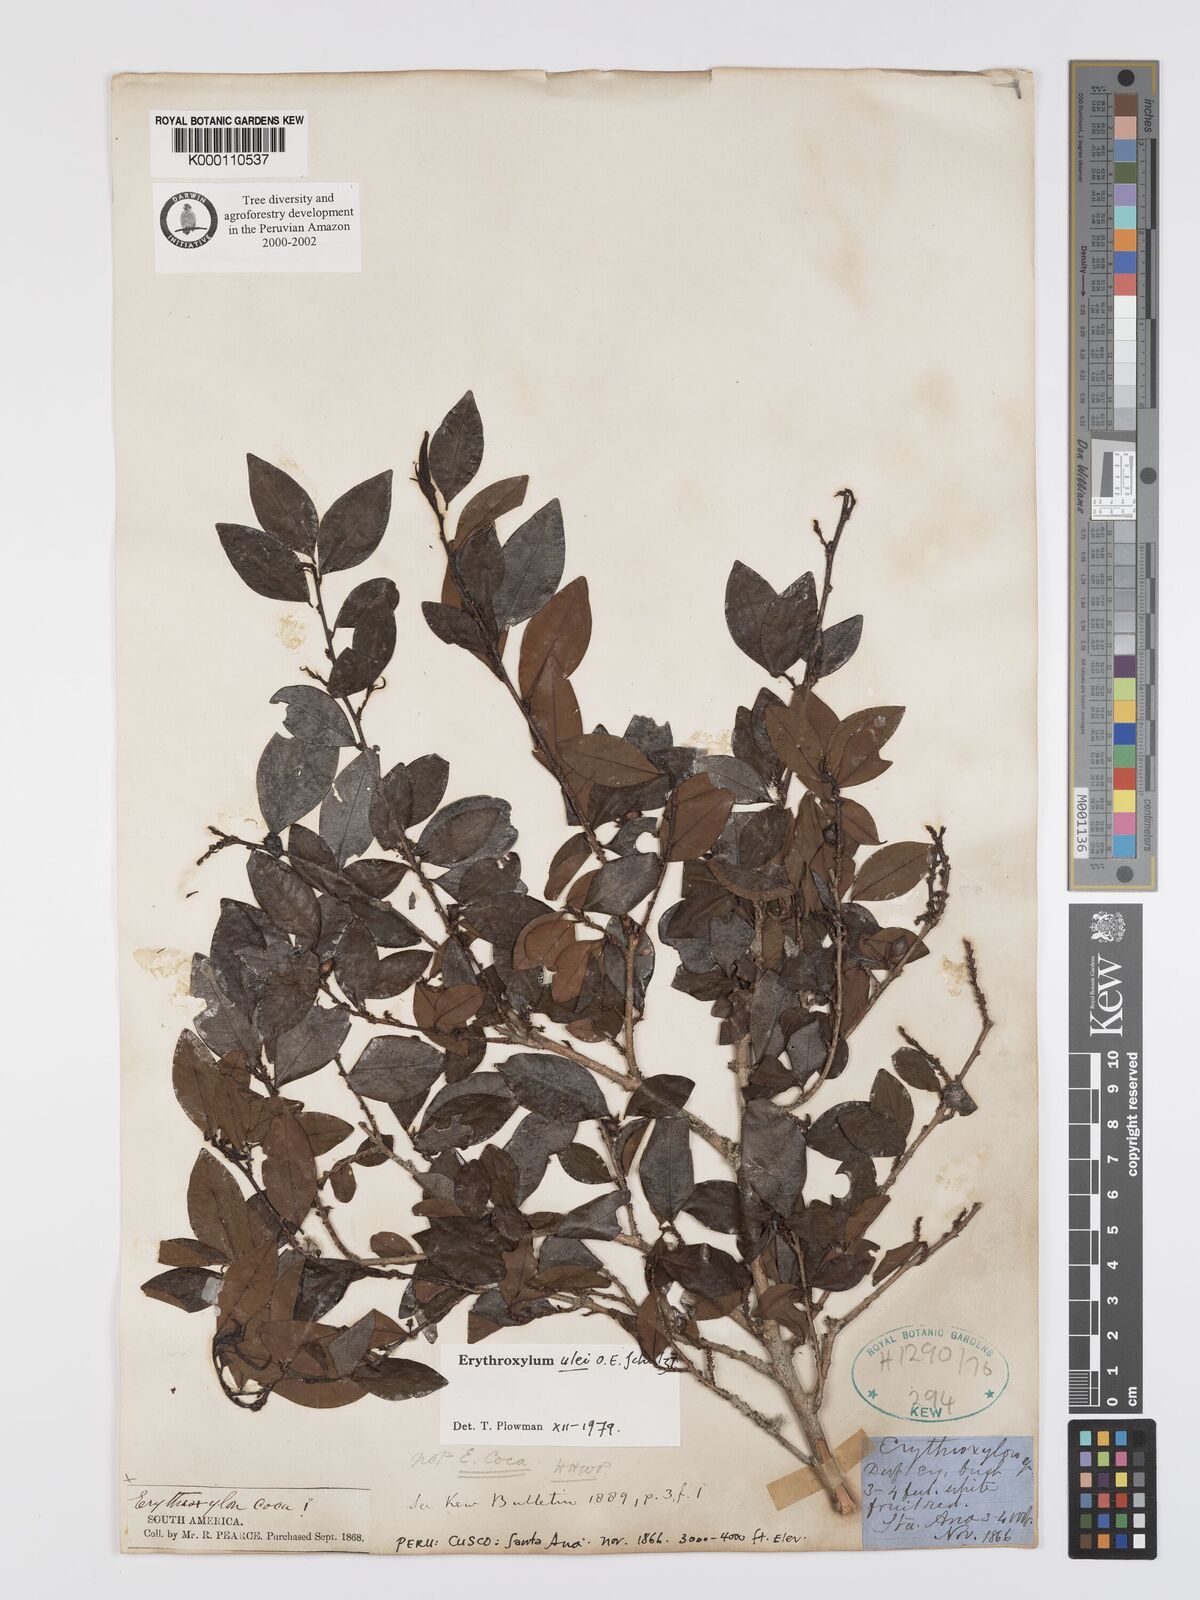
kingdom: Plantae
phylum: Tracheophyta
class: Magnoliopsida
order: Malpighiales
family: Erythroxylaceae
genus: Erythroxylum
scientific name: Erythroxylum ulei
